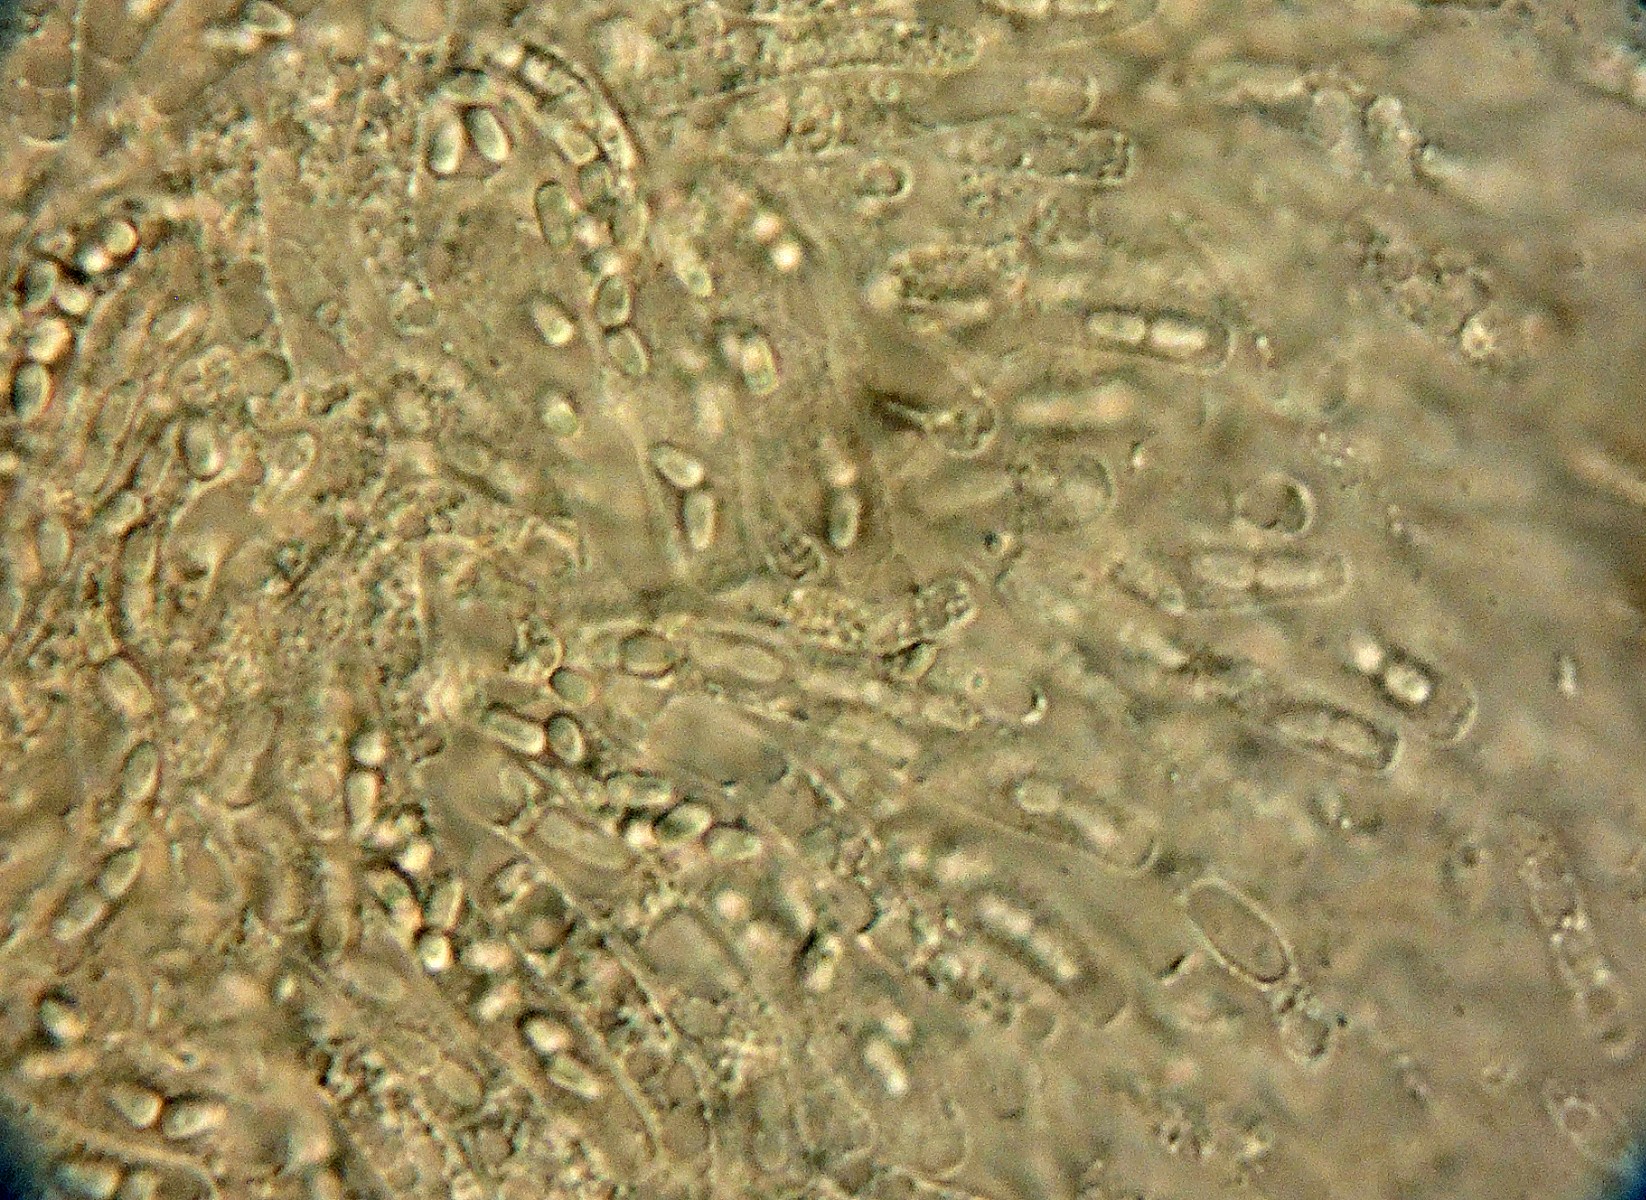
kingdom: Fungi
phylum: Ascomycota
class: Sordariomycetes
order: Hypocreales
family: Niessliaceae
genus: Trichosphaerella
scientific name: Trichosphaerella decipiens
